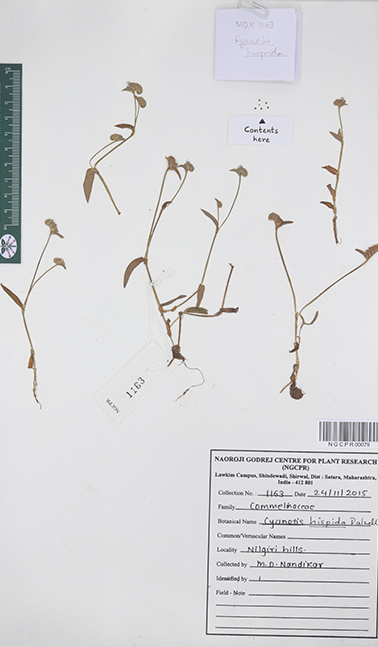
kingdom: Plantae
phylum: Tracheophyta
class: Liliopsida
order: Commelinales
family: Commelinaceae
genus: Cyanotis
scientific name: Cyanotis burmanniana
